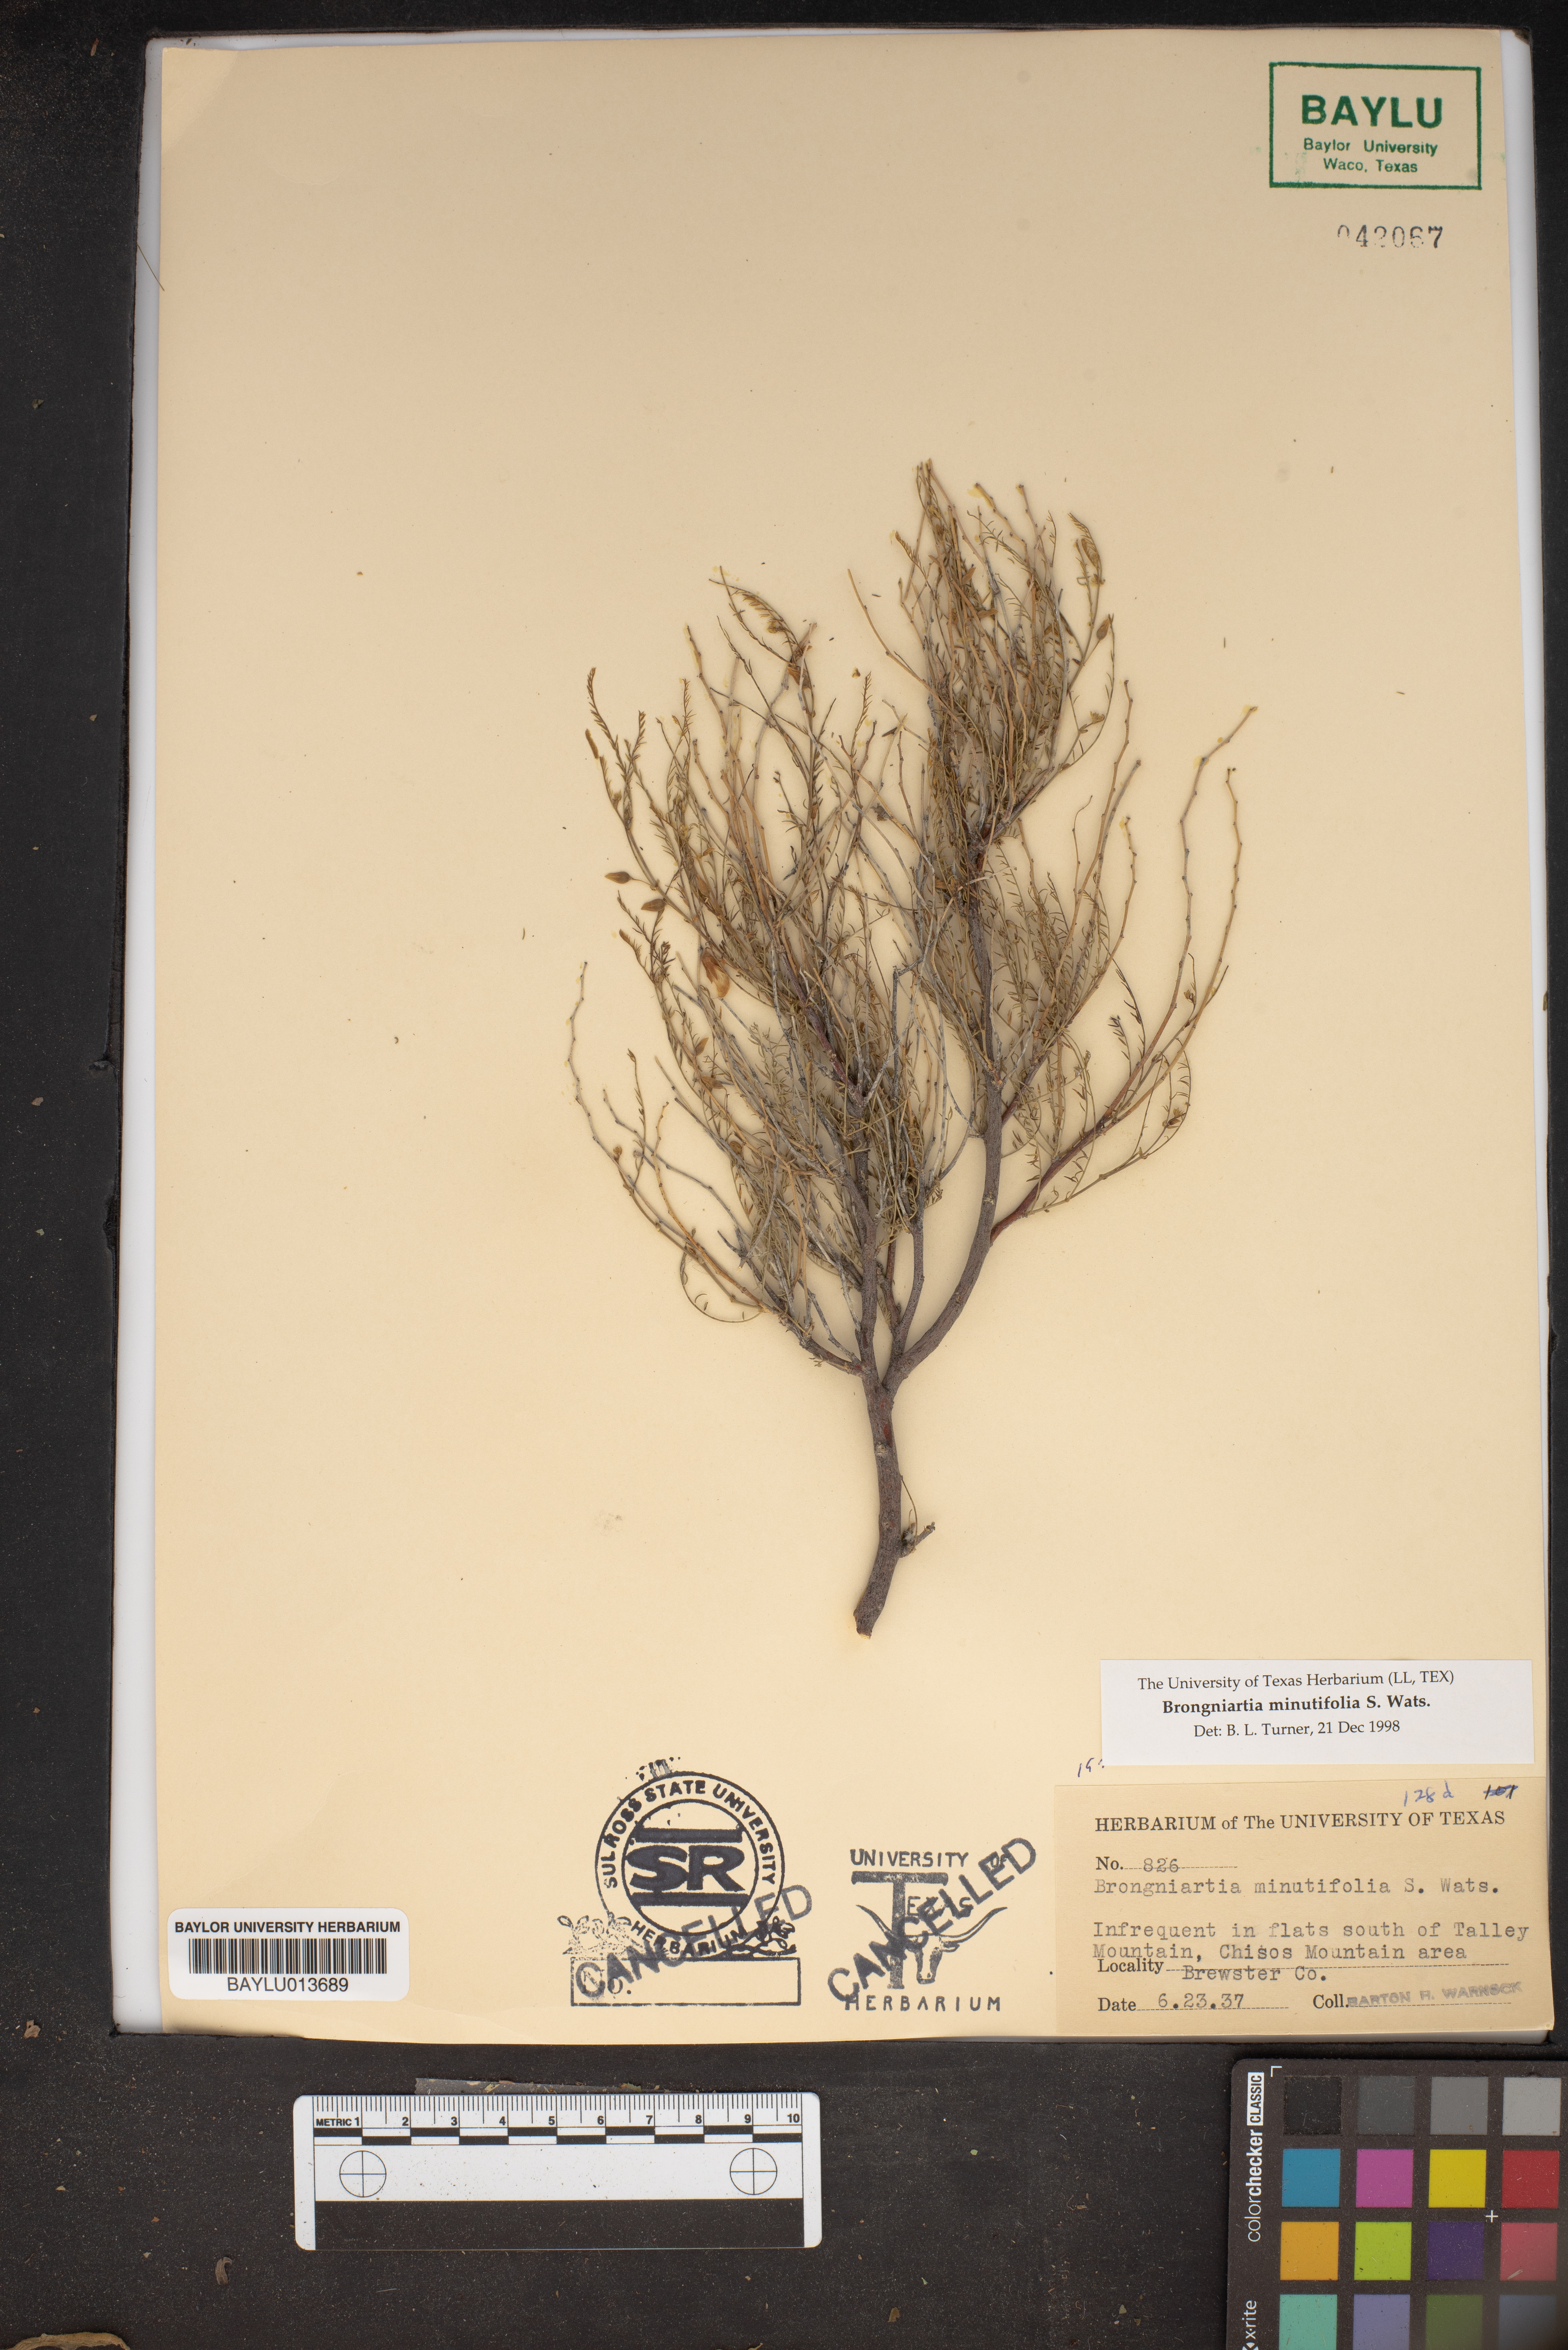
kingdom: Plantae
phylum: Tracheophyta
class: Magnoliopsida
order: Fabales
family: Fabaceae
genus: Brongniartia
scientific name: Brongniartia minutifolia
